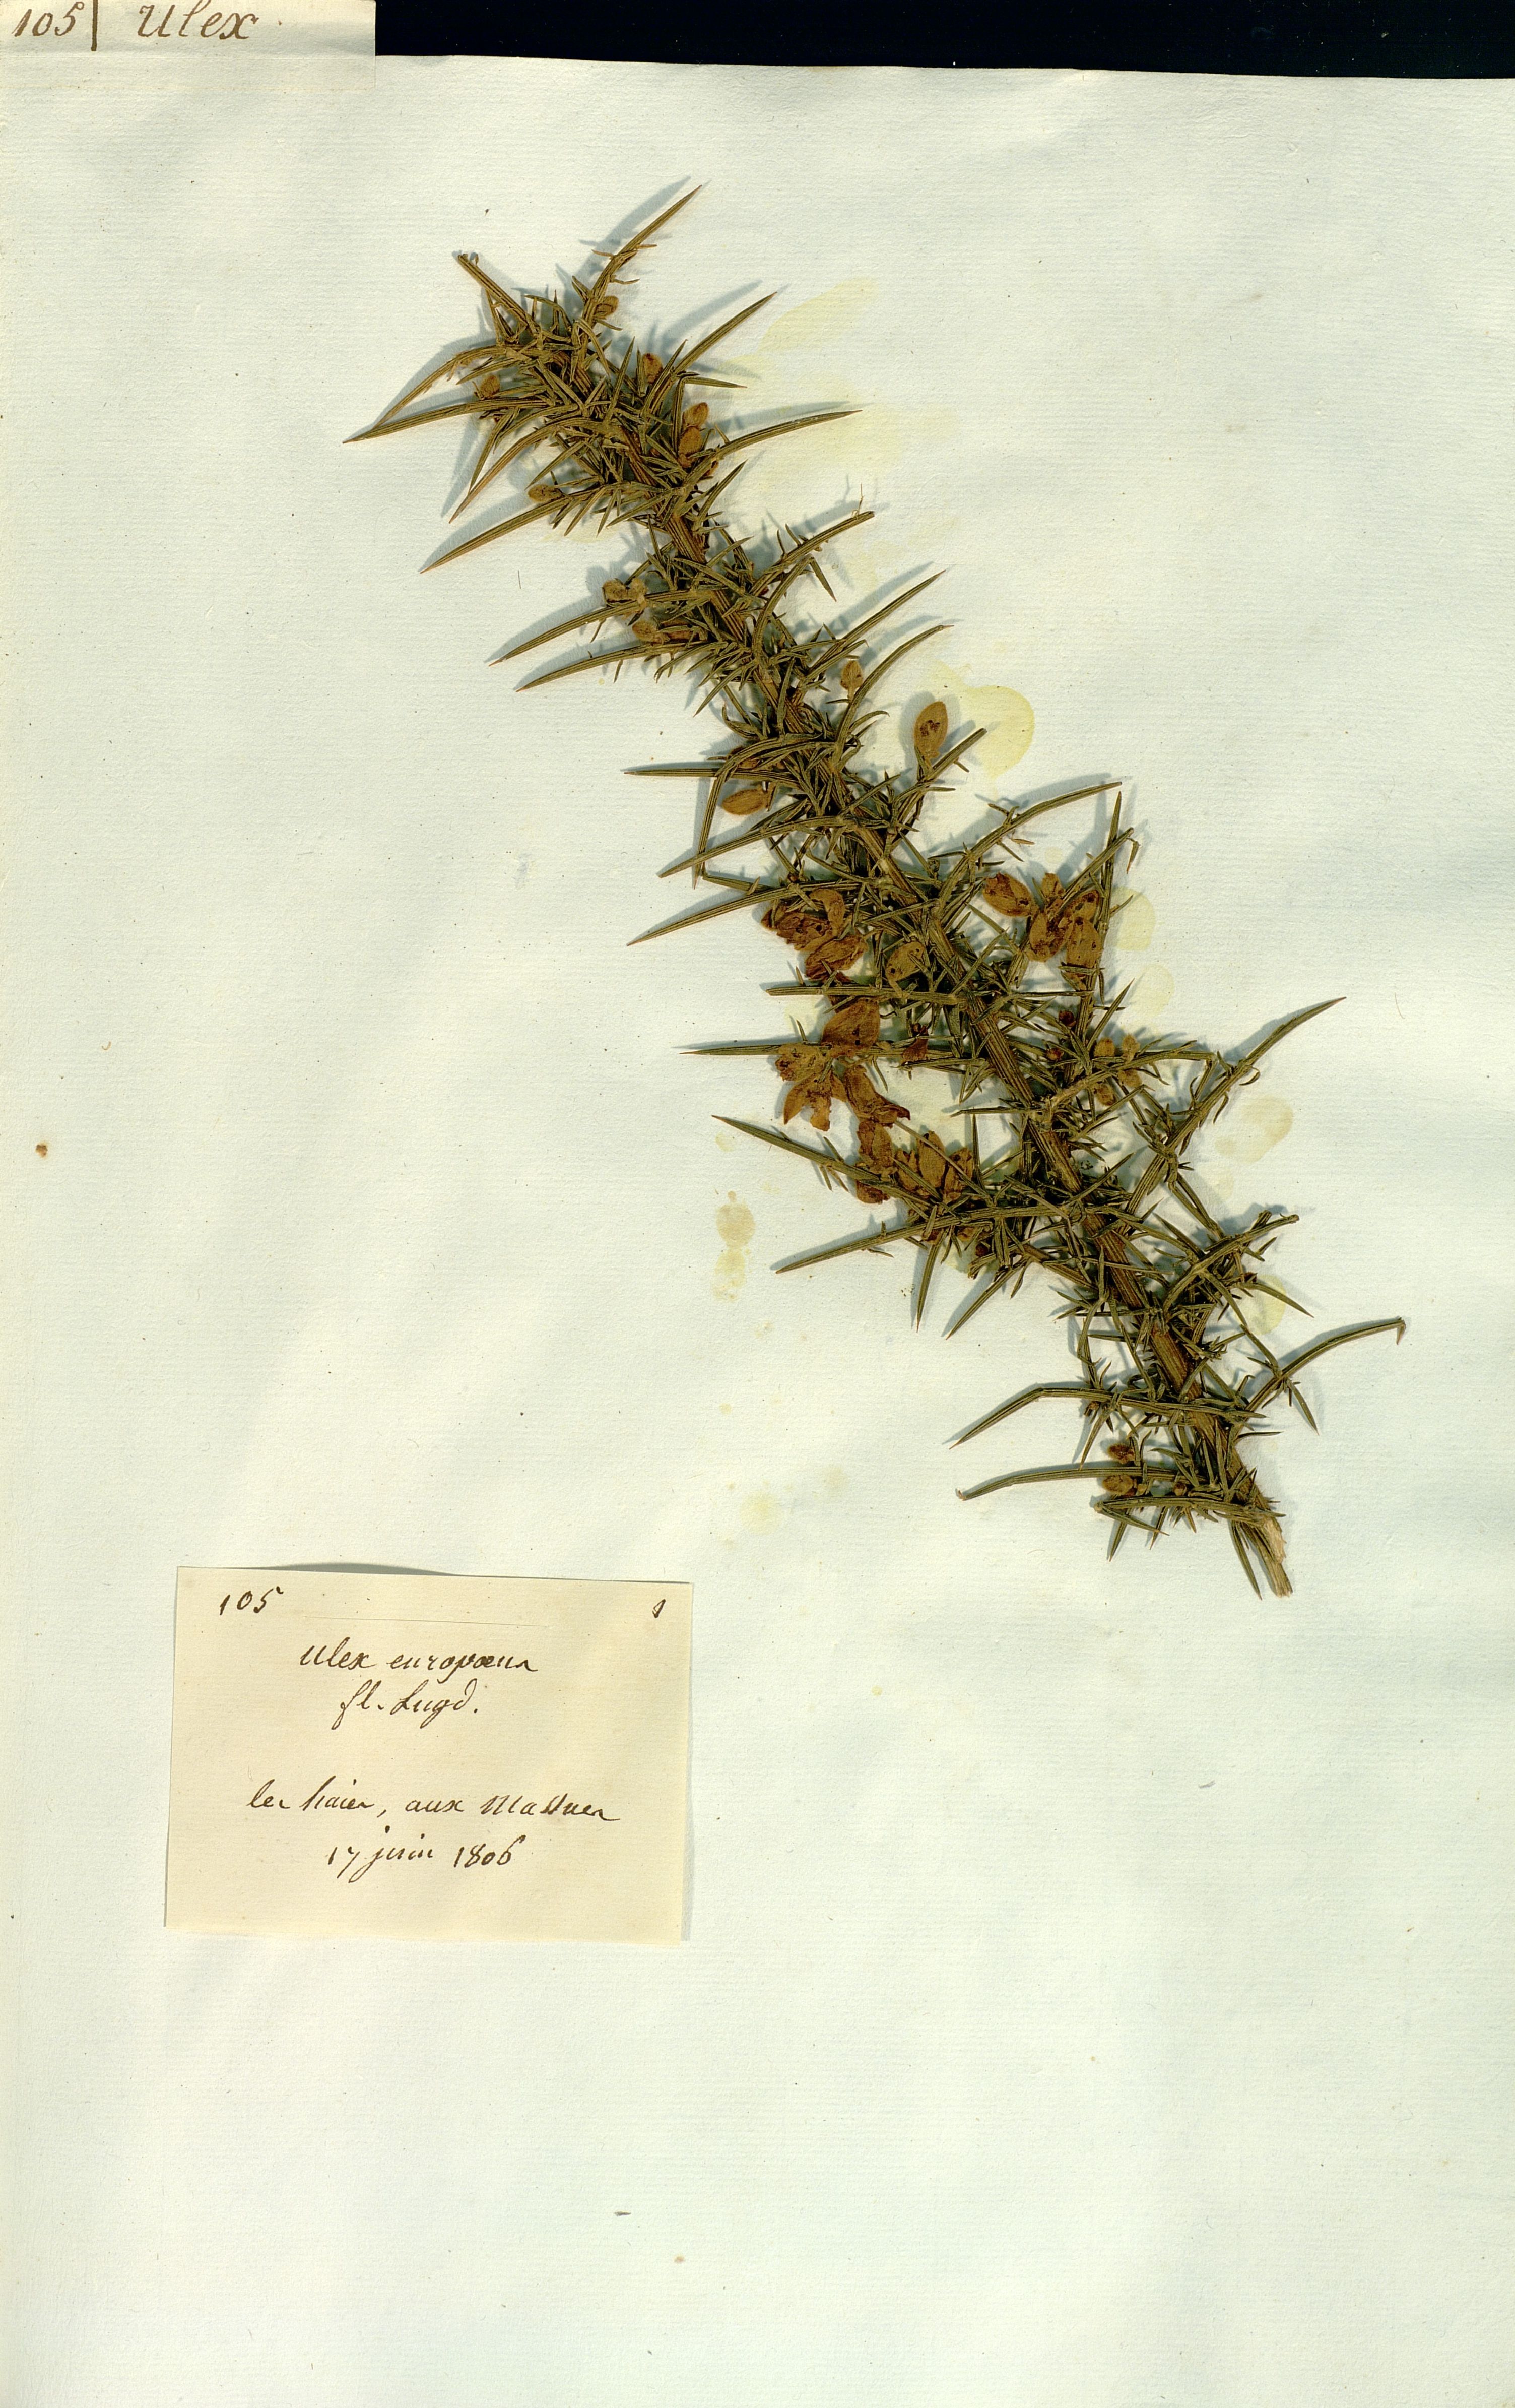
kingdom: Plantae
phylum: Tracheophyta
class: Magnoliopsida
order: Fabales
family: Fabaceae
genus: Ulex
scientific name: Ulex europaeus
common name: Common gorse
